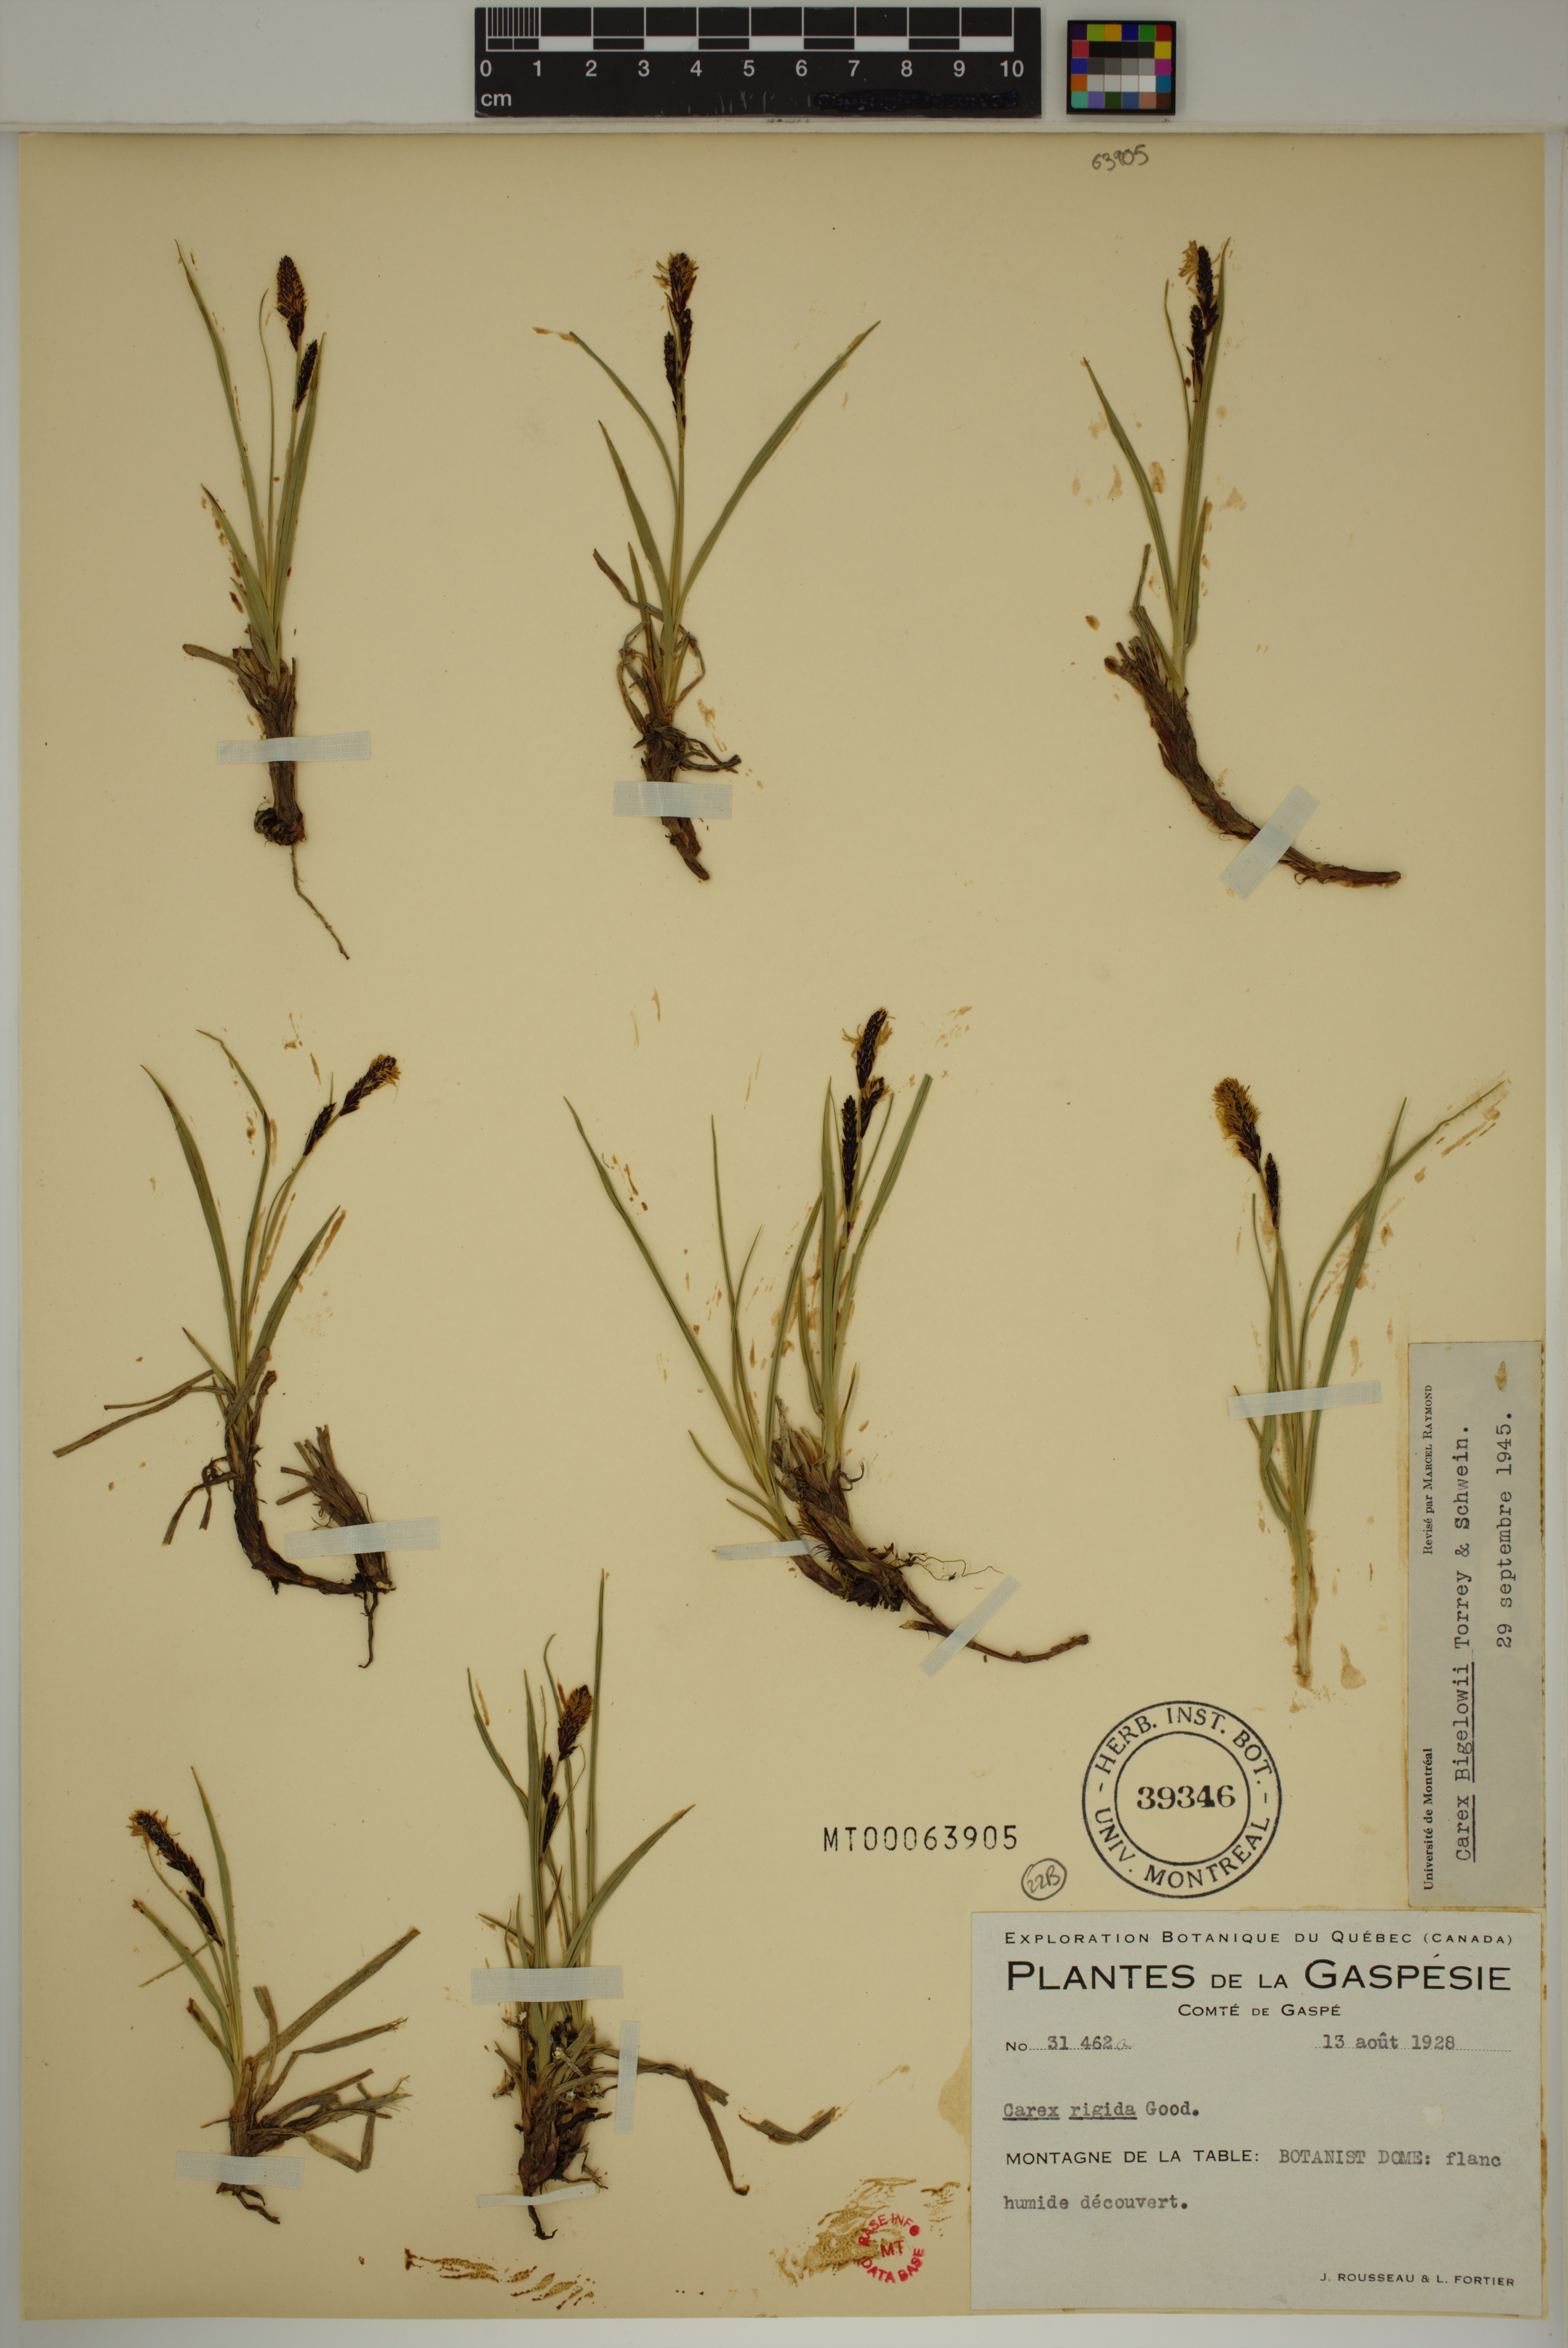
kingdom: Plantae
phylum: Tracheophyta
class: Liliopsida
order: Poales
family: Cyperaceae
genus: Carex
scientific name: Carex bigelowii
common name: Stiff sedge
